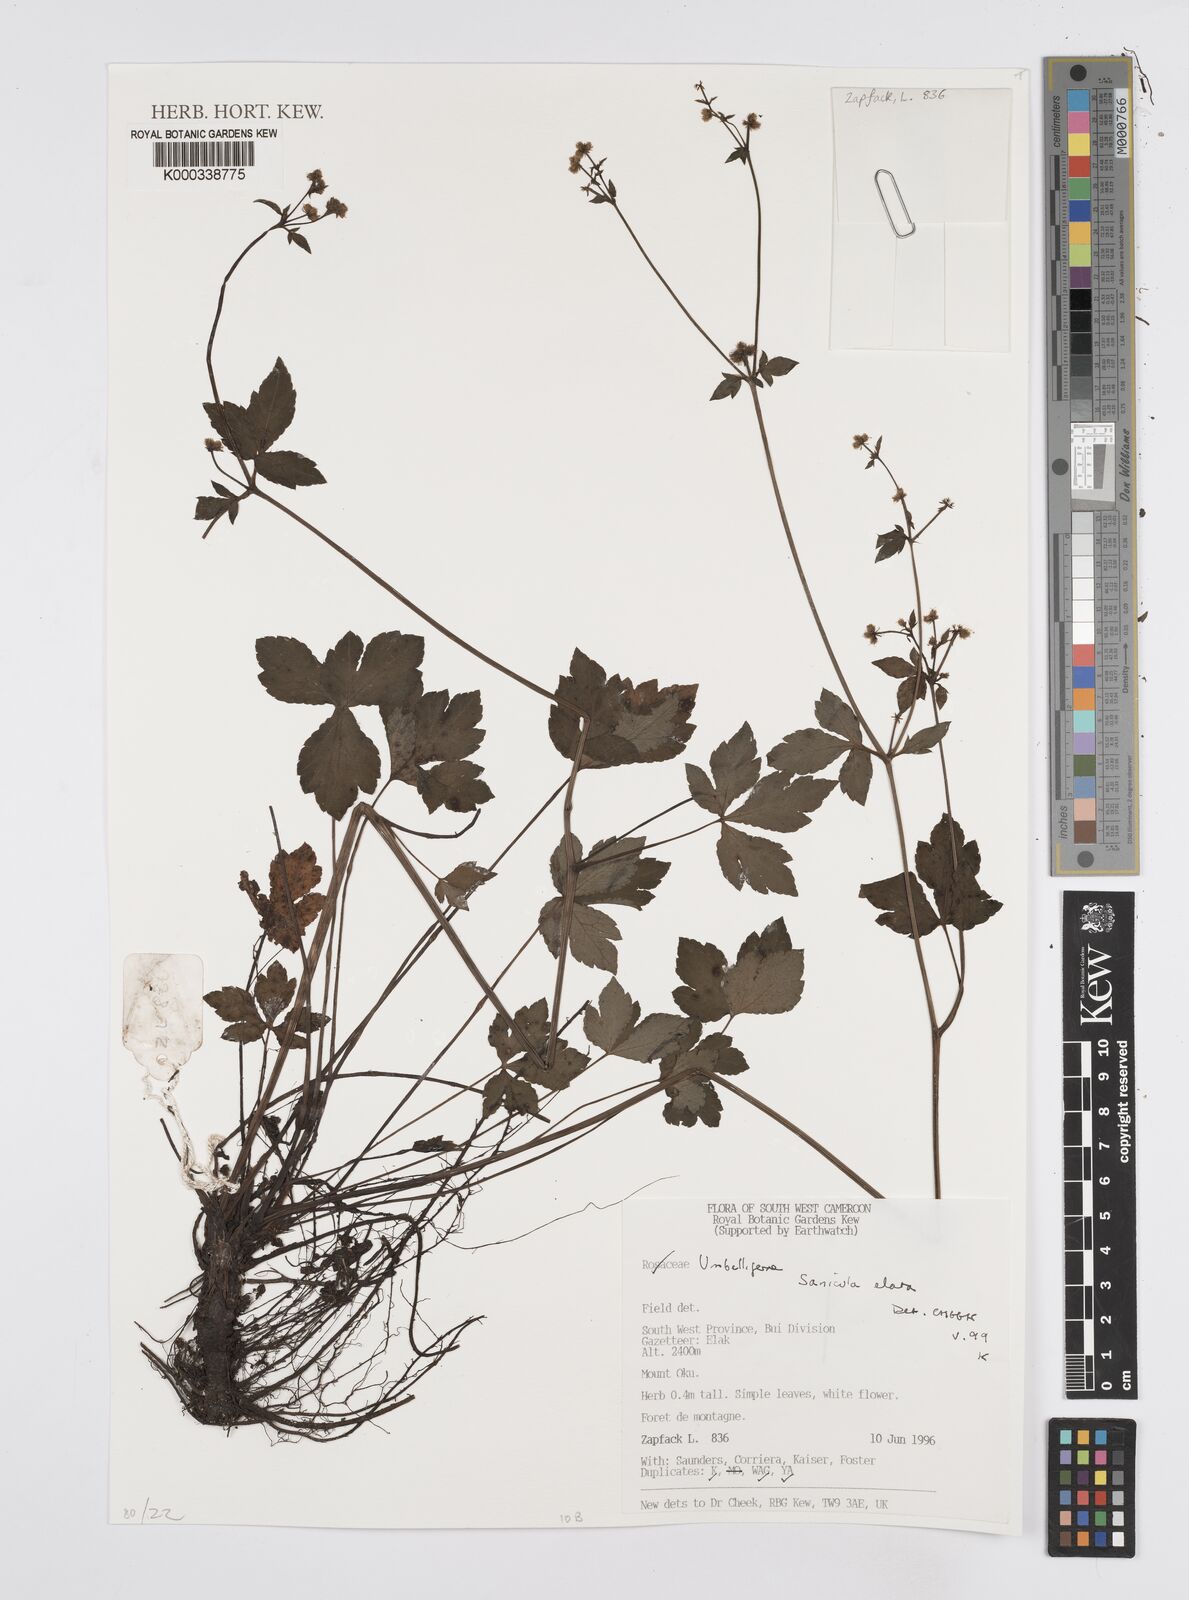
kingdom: Plantae
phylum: Tracheophyta
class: Magnoliopsida
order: Apiales
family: Apiaceae
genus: Sanicula
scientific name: Sanicula
